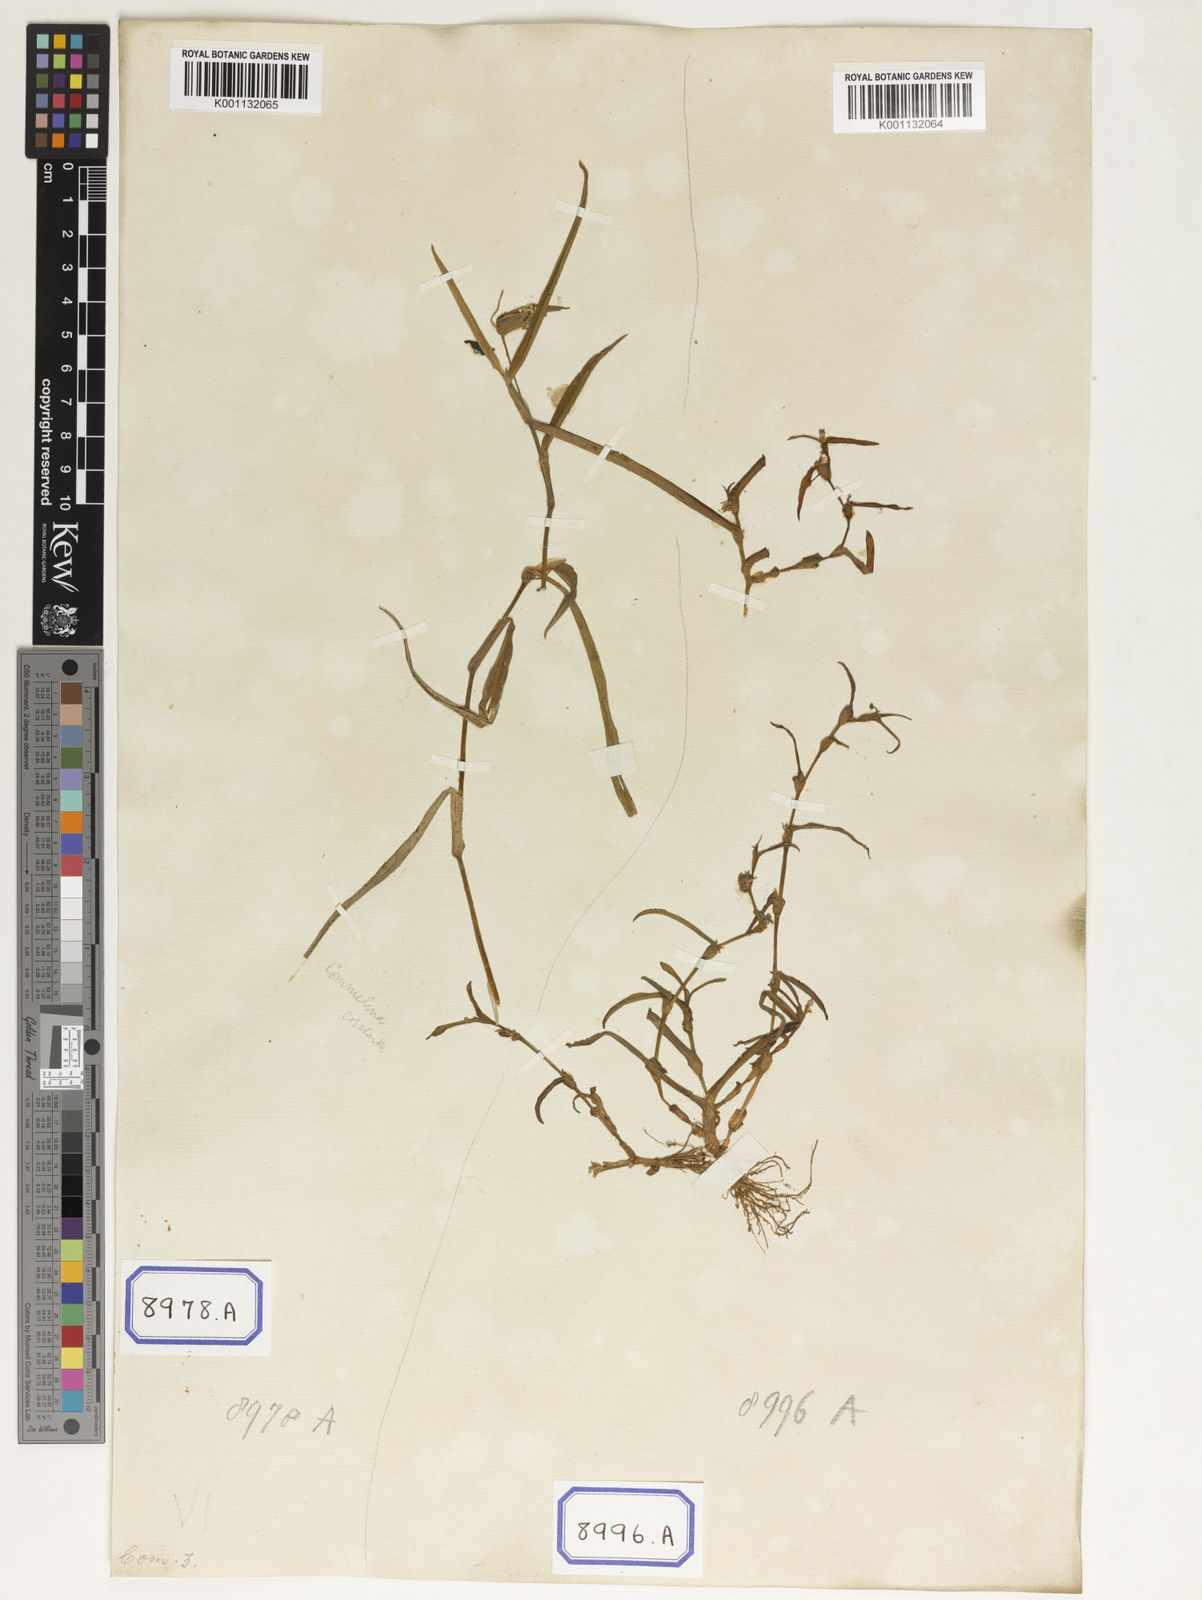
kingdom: Plantae
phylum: Tracheophyta
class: Liliopsida
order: Commelinales
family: Commelinaceae
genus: Commelina
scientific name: Commelina communis
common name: Asiatic dayflower
